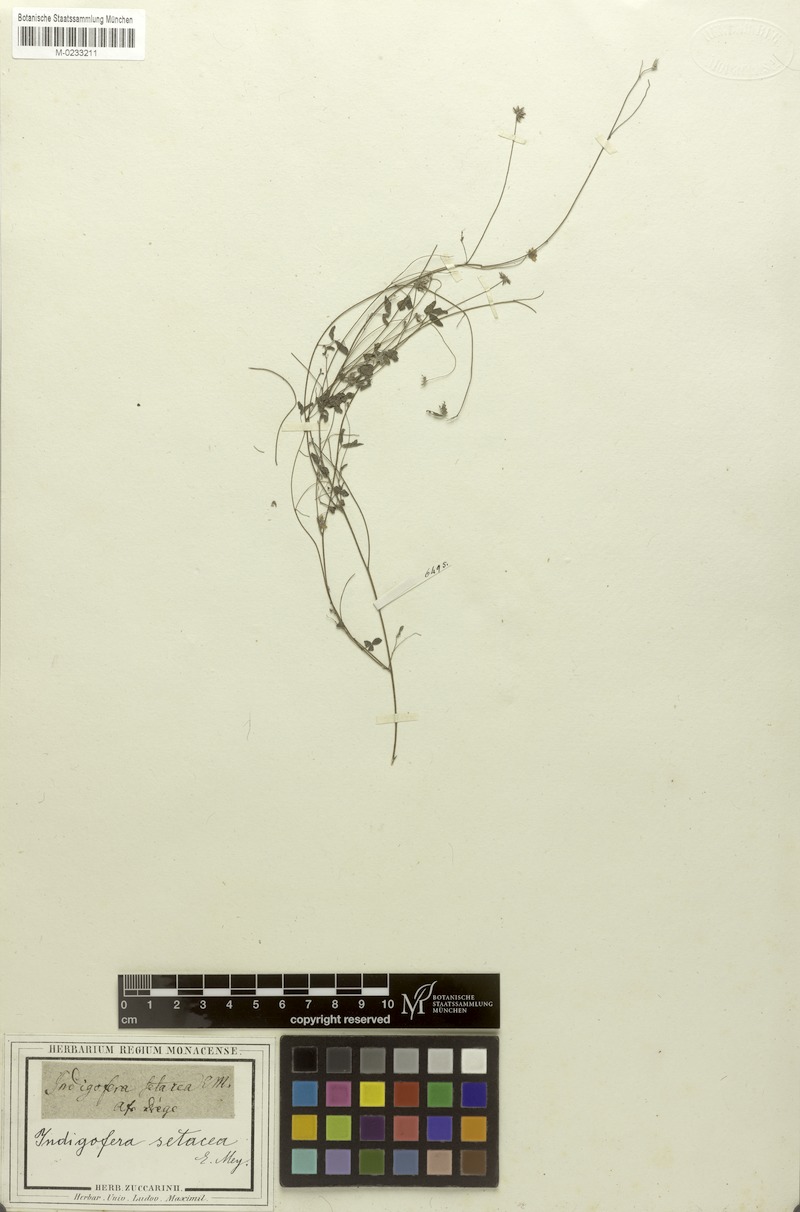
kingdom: Plantae
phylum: Tracheophyta
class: Magnoliopsida
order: Fabales
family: Fabaceae
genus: Indigofera
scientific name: Indigofera gracilis
